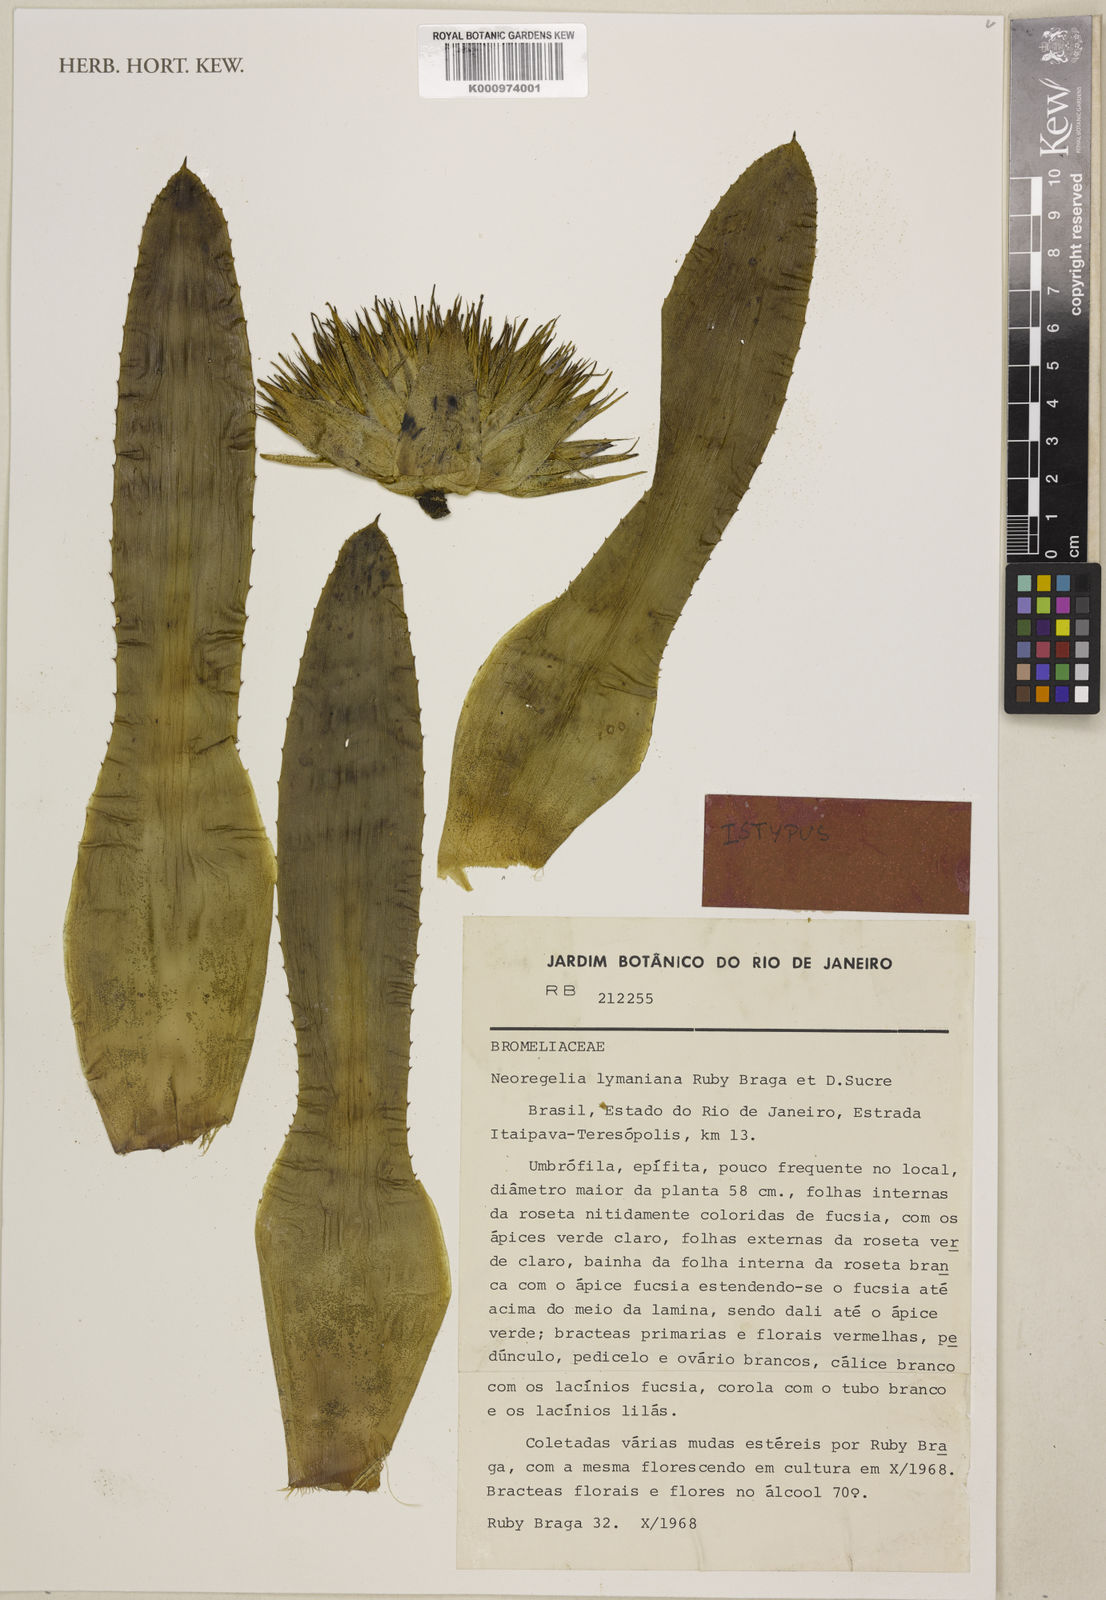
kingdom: Plantae
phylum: Tracheophyta
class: Liliopsida
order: Poales
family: Bromeliaceae
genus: Neoregelia
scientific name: Neoregelia lymaniana
